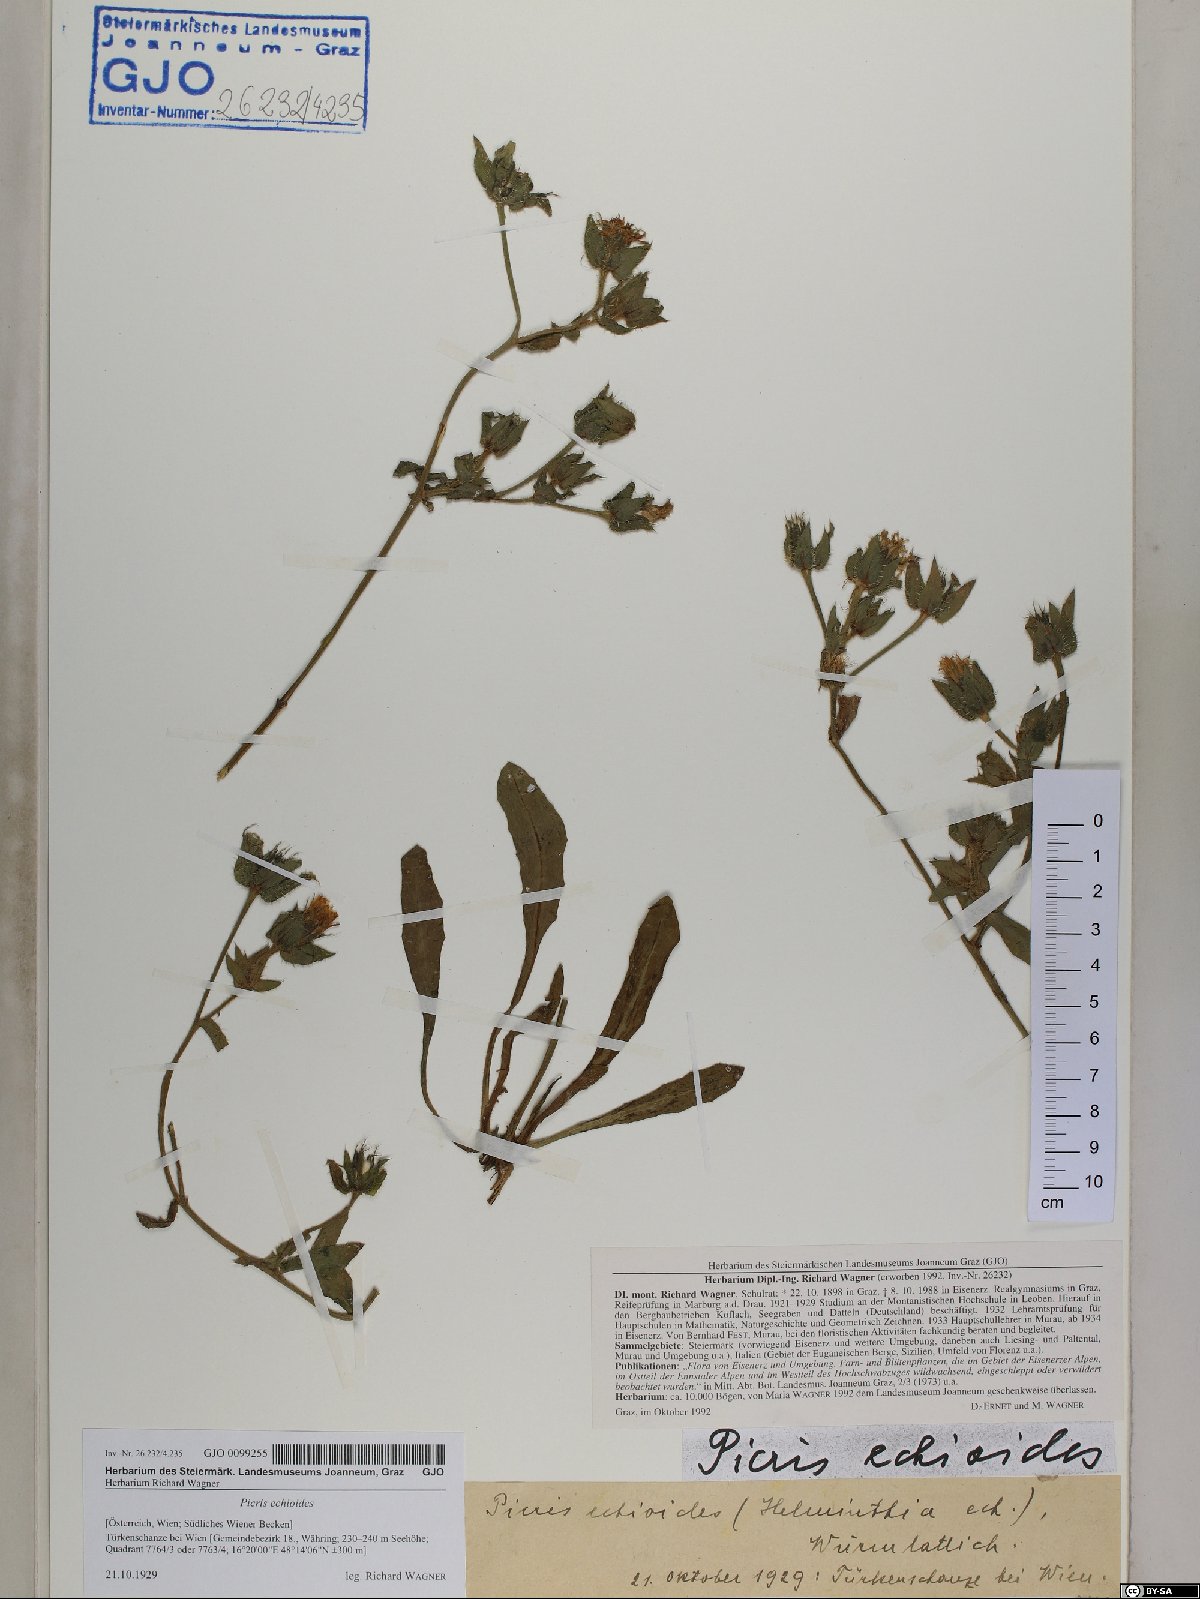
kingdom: Plantae
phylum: Tracheophyta
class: Magnoliopsida
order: Asterales
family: Asteraceae
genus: Helminthotheca
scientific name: Helminthotheca echioides
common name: Ox-tongue
